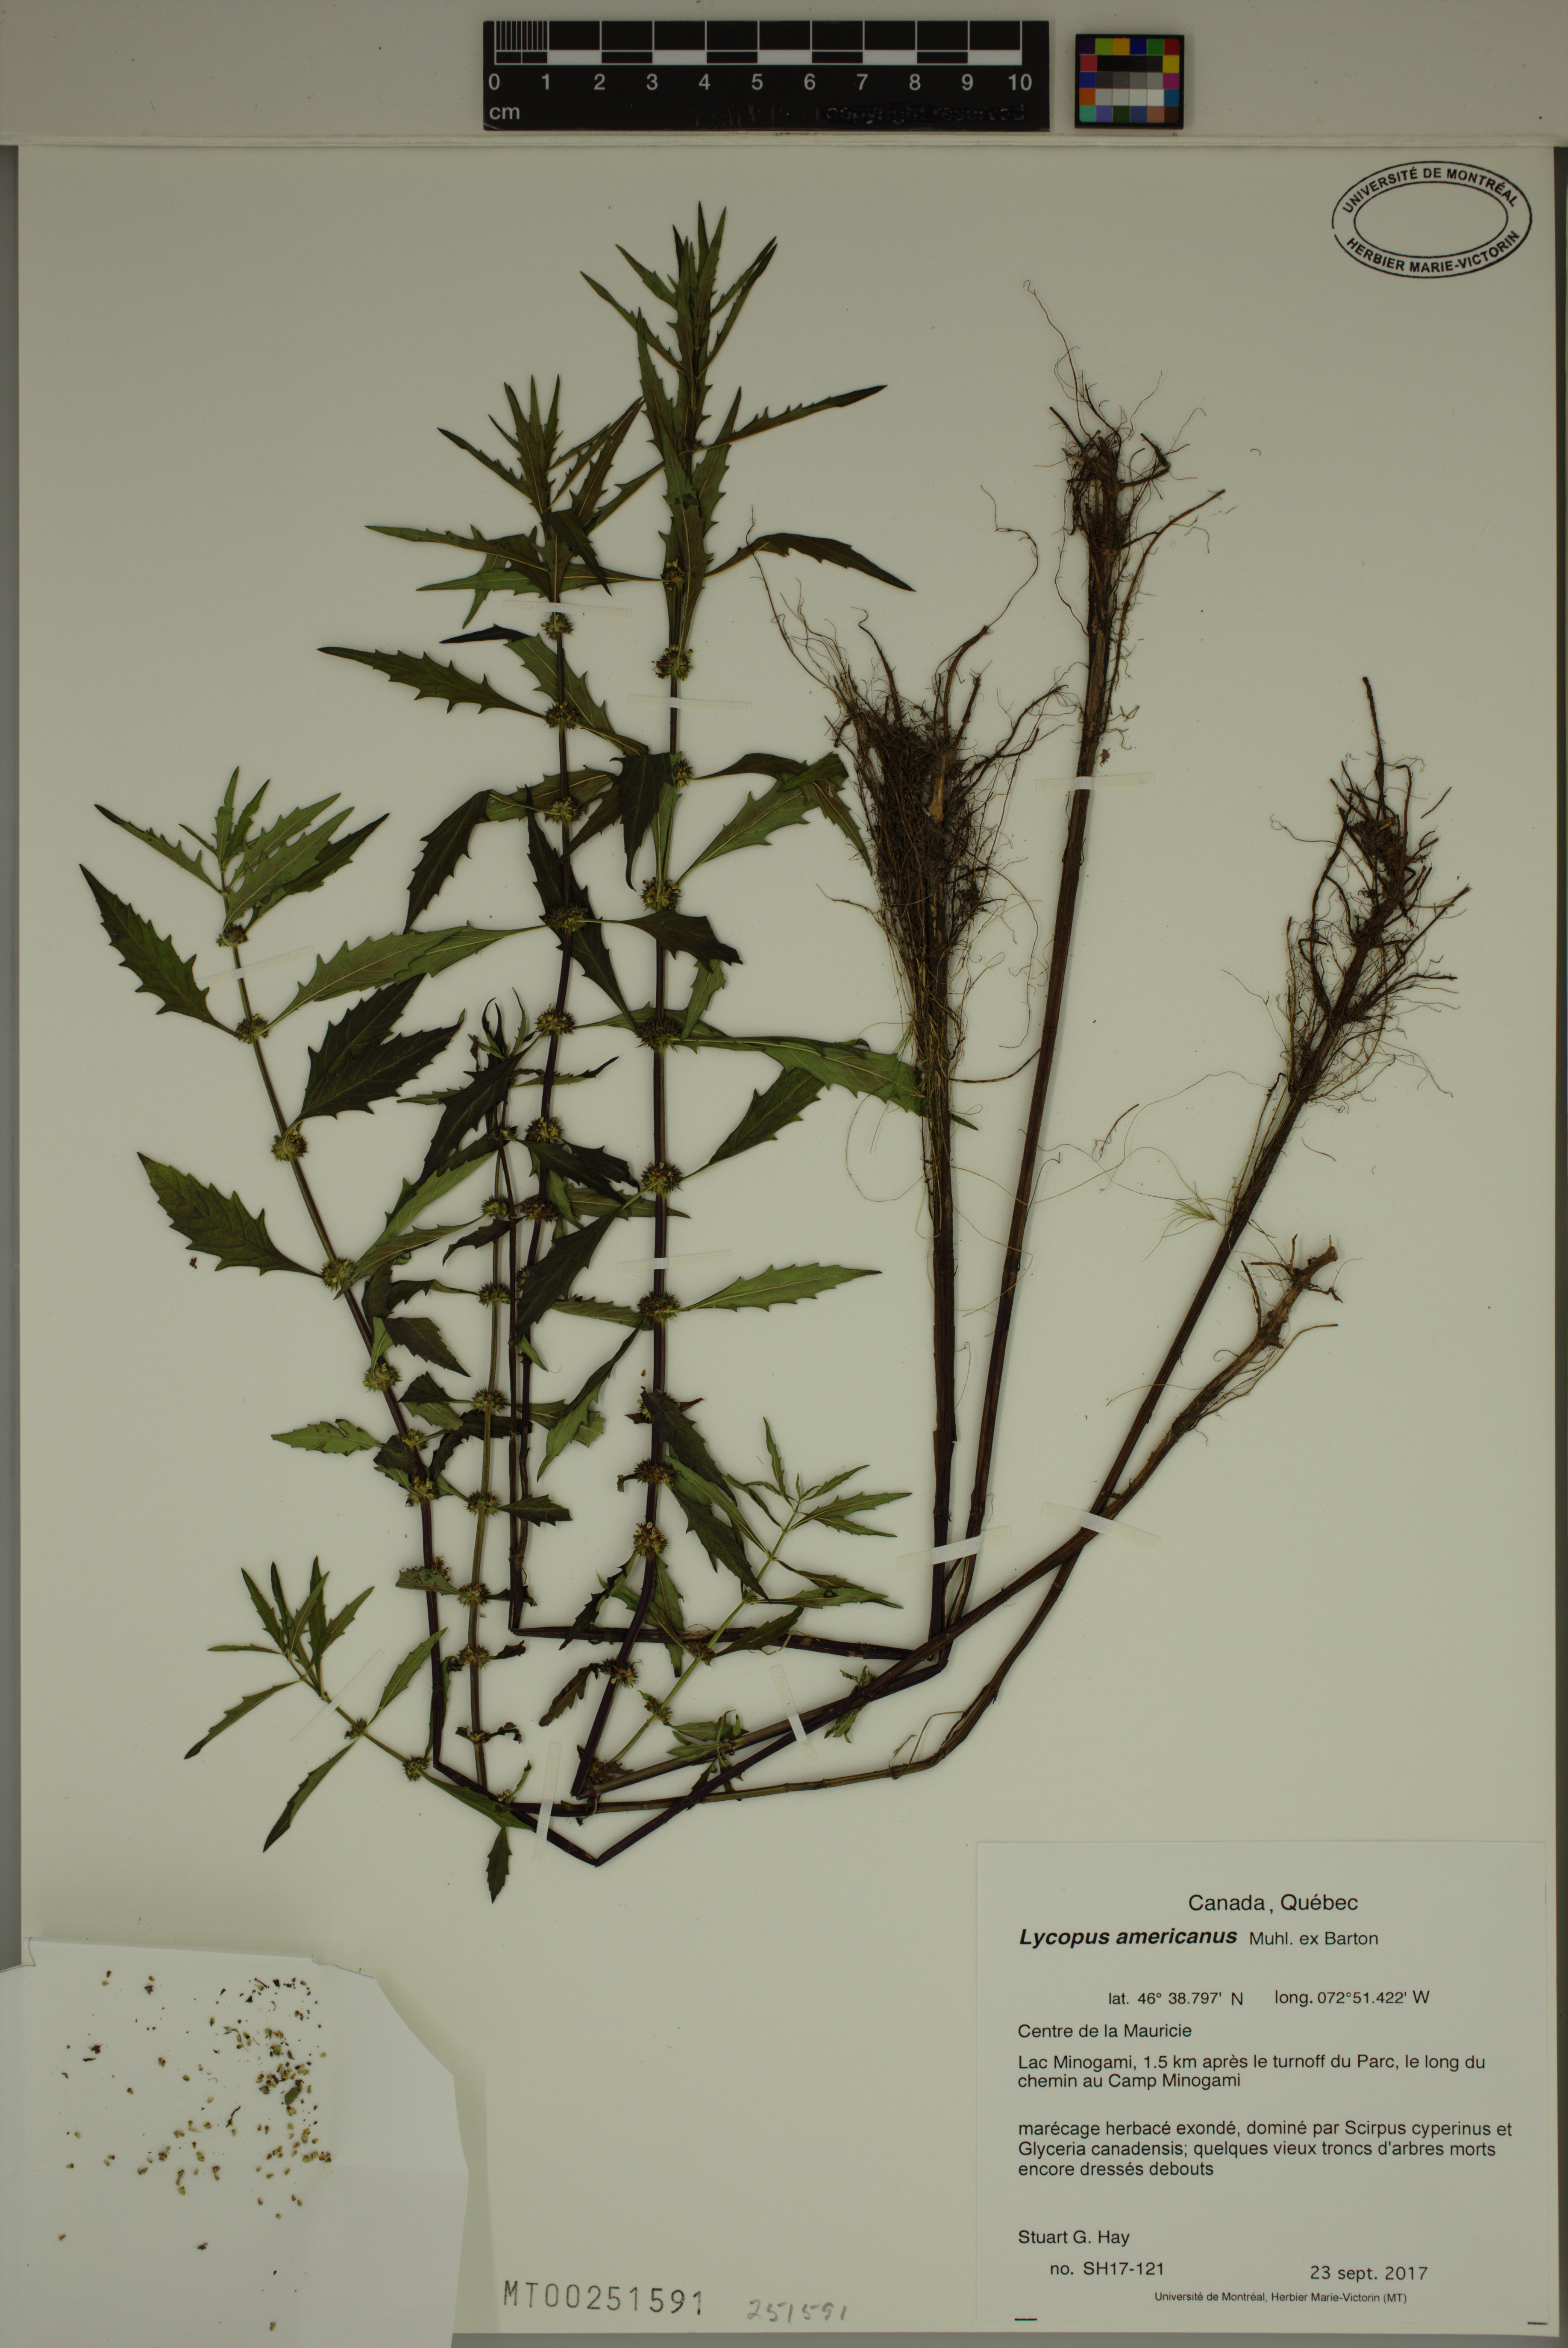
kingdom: Plantae
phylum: Tracheophyta
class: Magnoliopsida
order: Lamiales
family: Lamiaceae
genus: Lycopus
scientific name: Lycopus americanus
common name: American bugleweed
